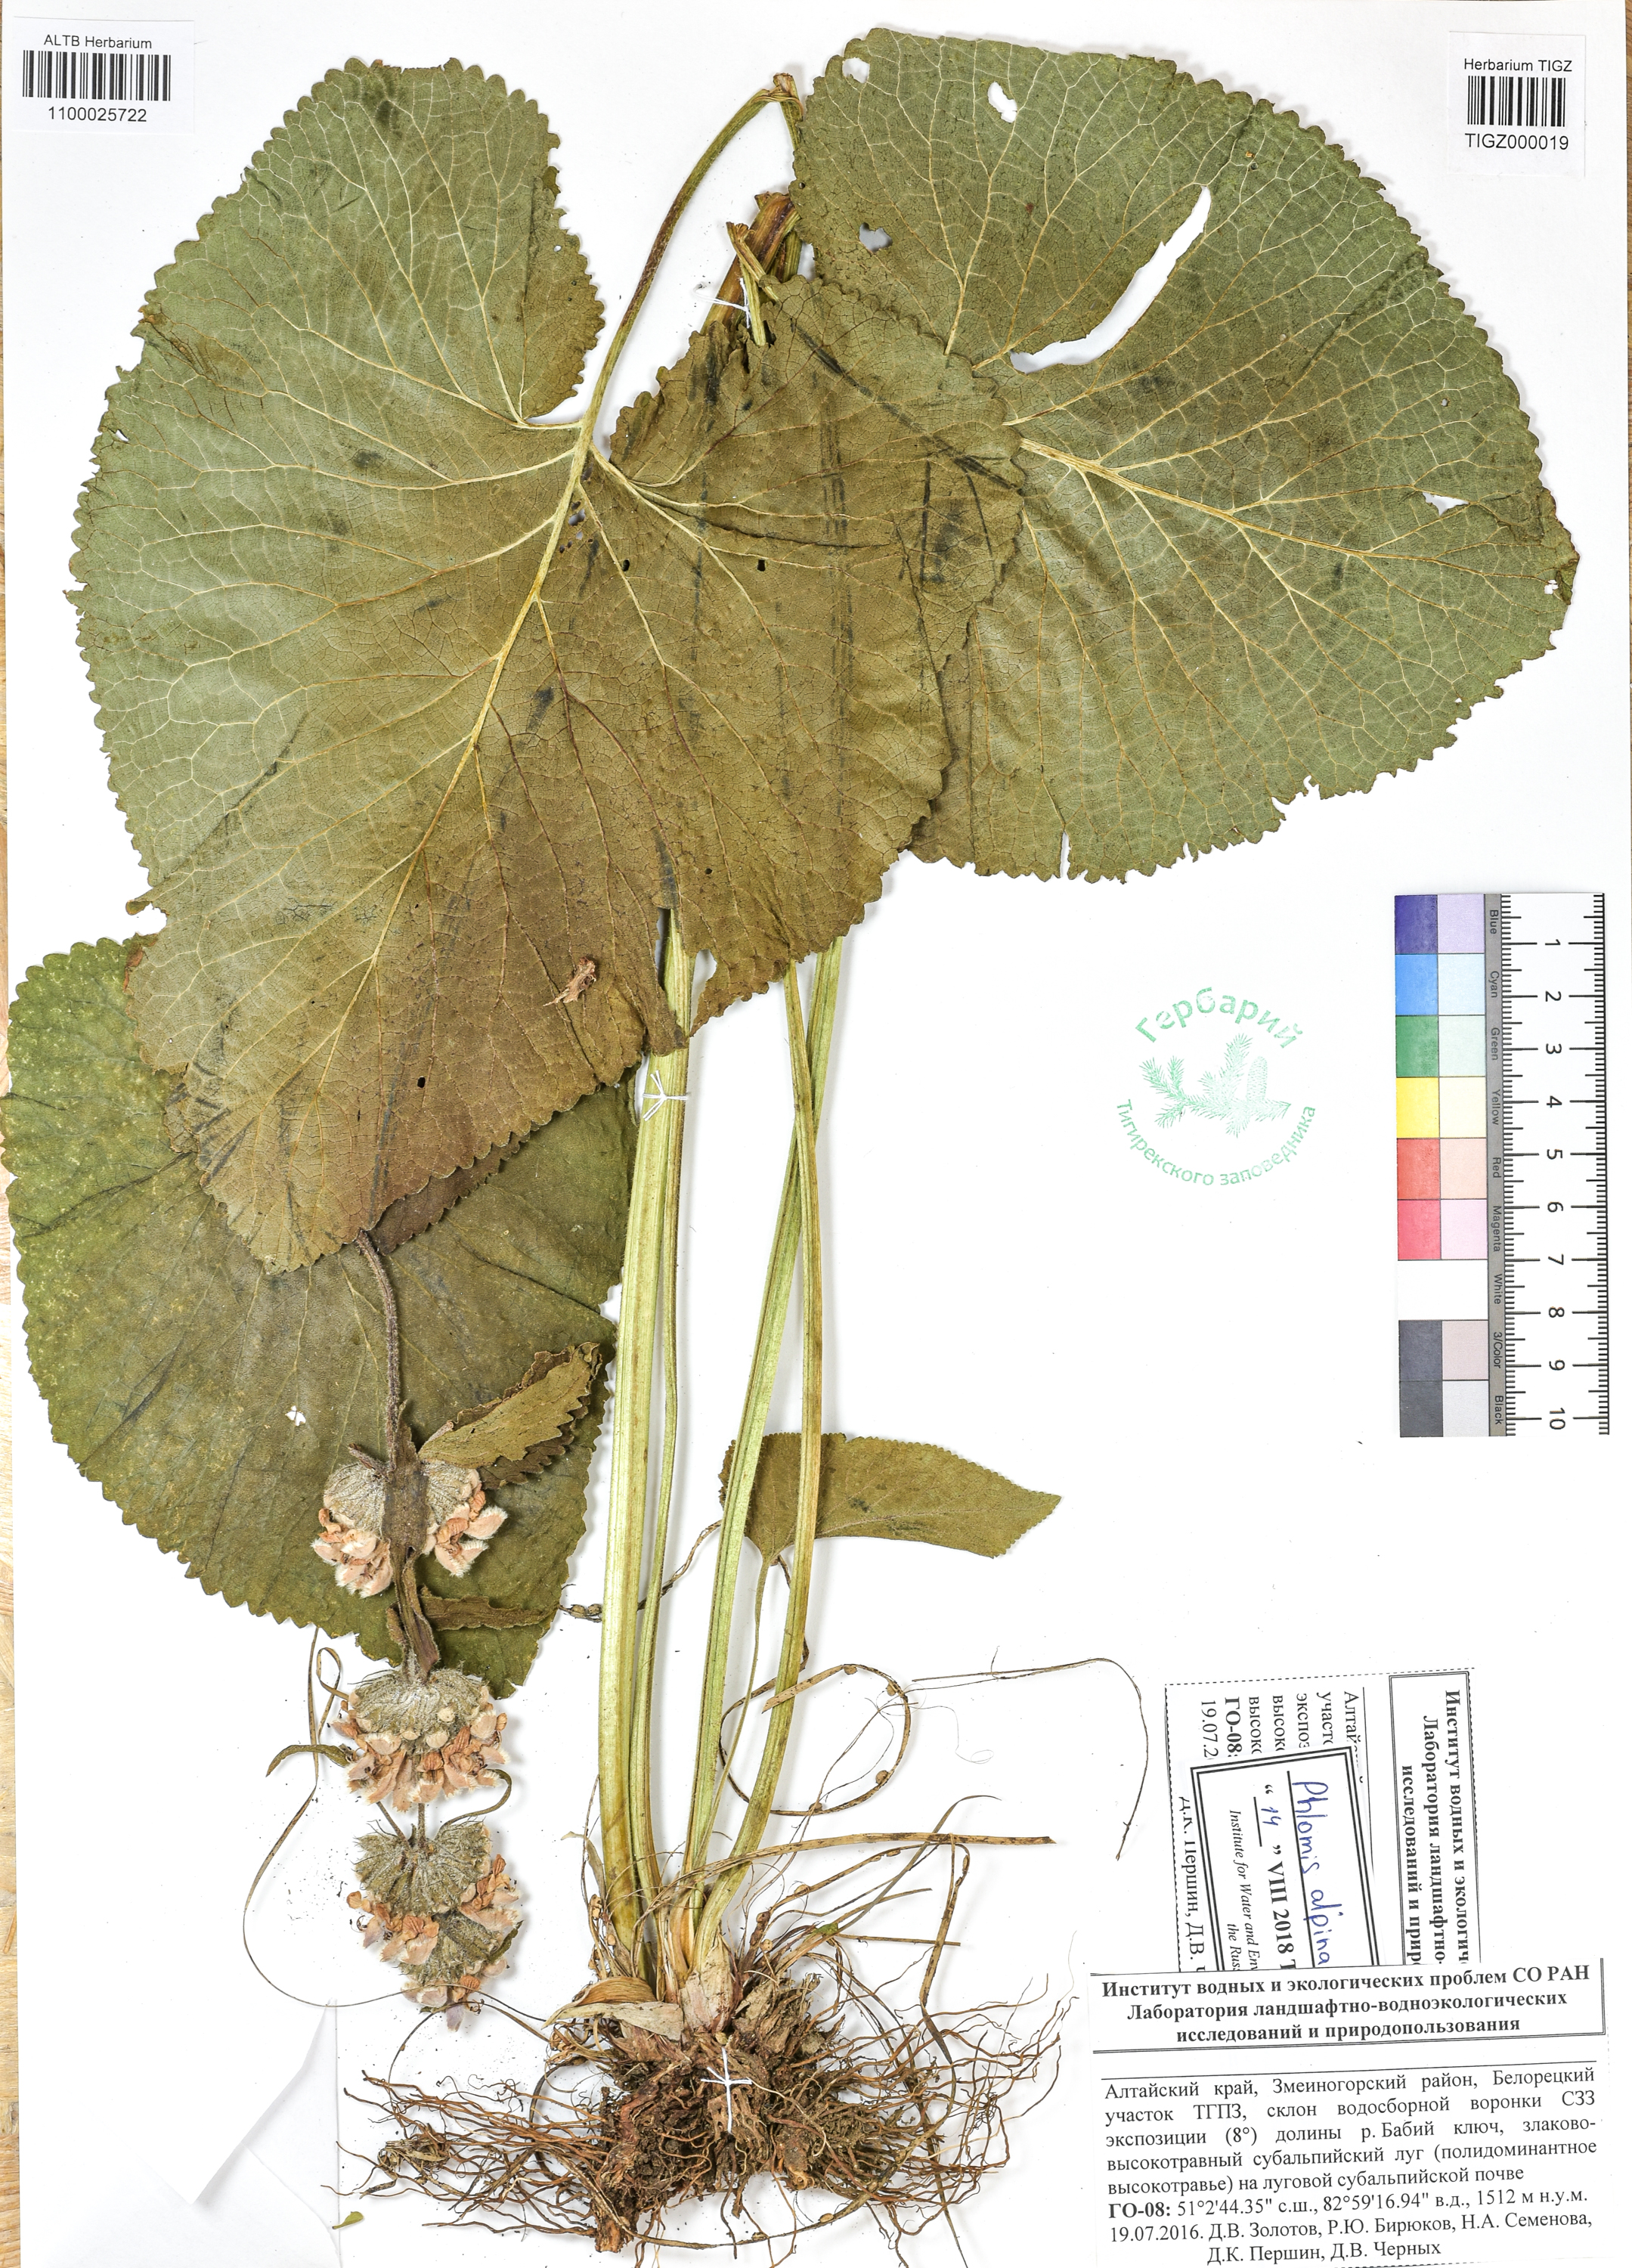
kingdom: Plantae
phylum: Tracheophyta
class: Magnoliopsida
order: Lamiales
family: Lamiaceae
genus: Phlomoides
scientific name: Phlomoides alpina
